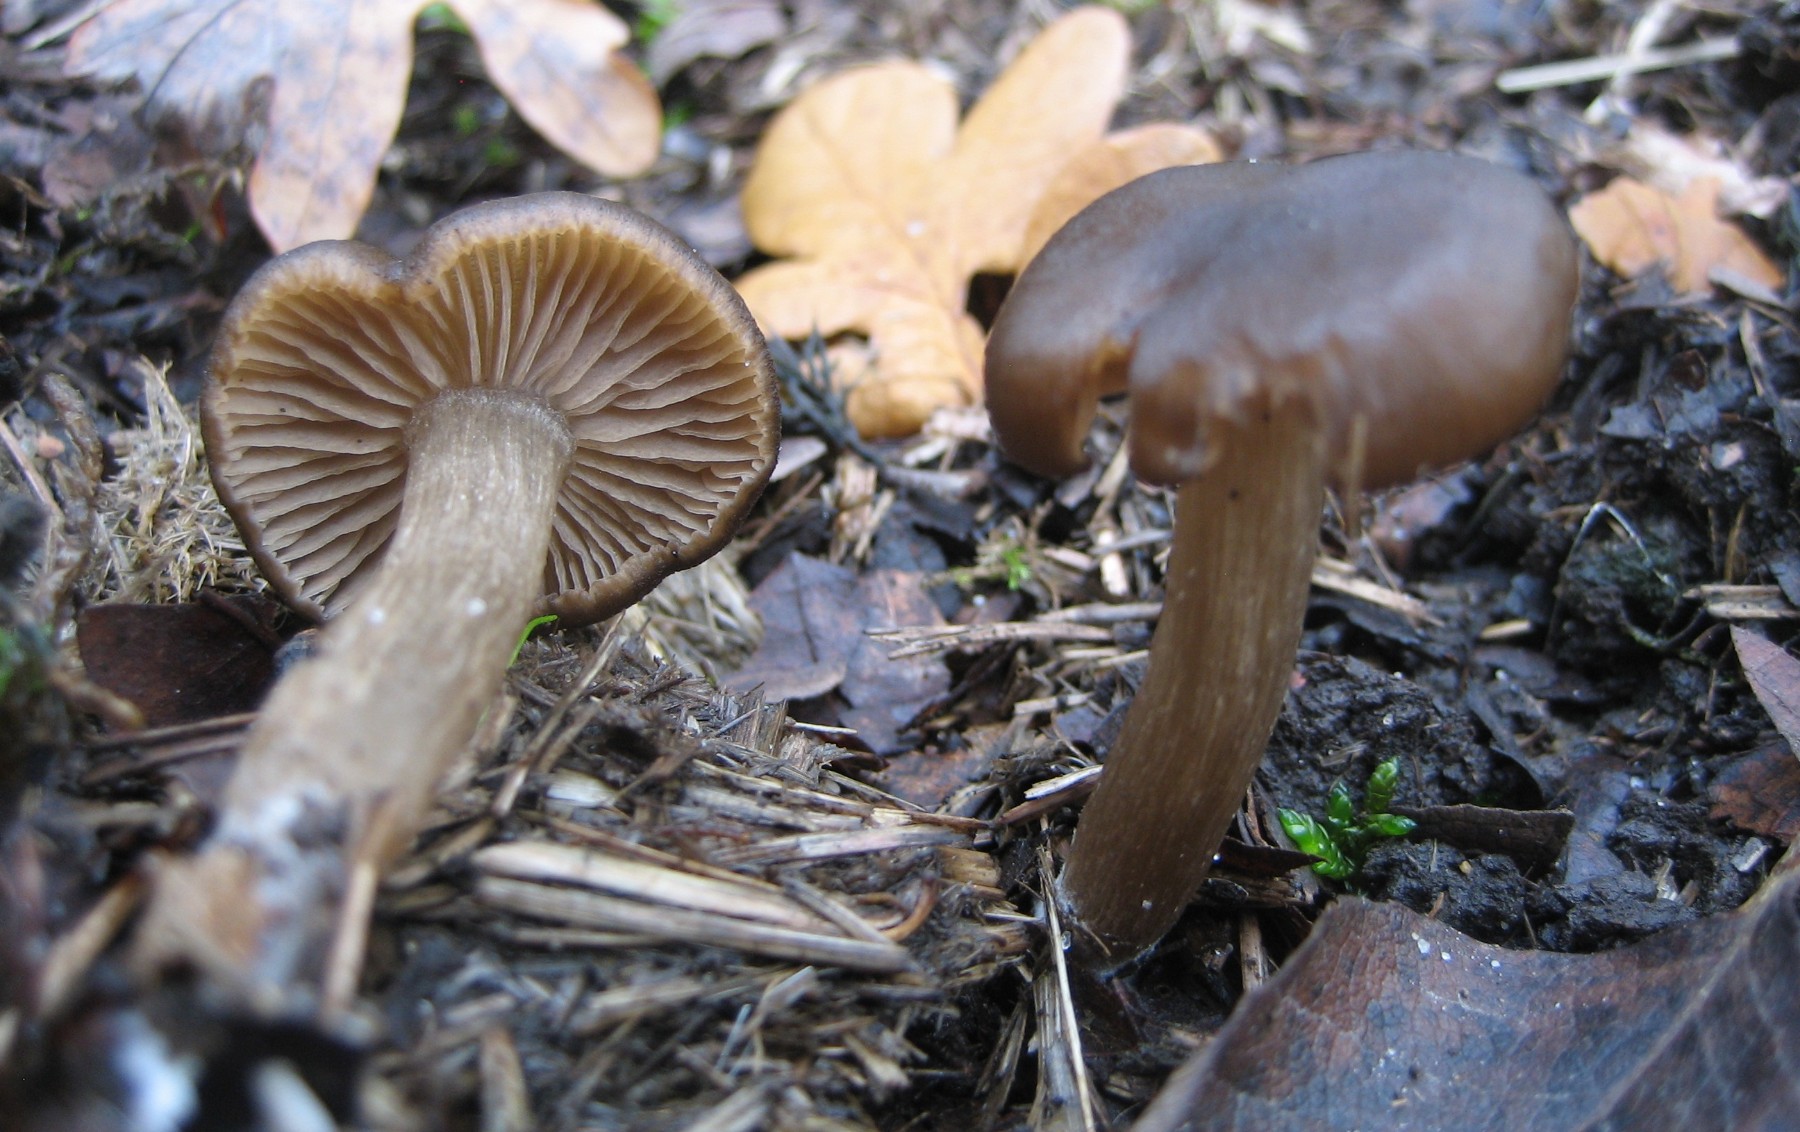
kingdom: Fungi
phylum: Basidiomycota
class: Agaricomycetes
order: Agaricales
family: Entolomataceae
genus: Entoloma
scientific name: Entoloma
